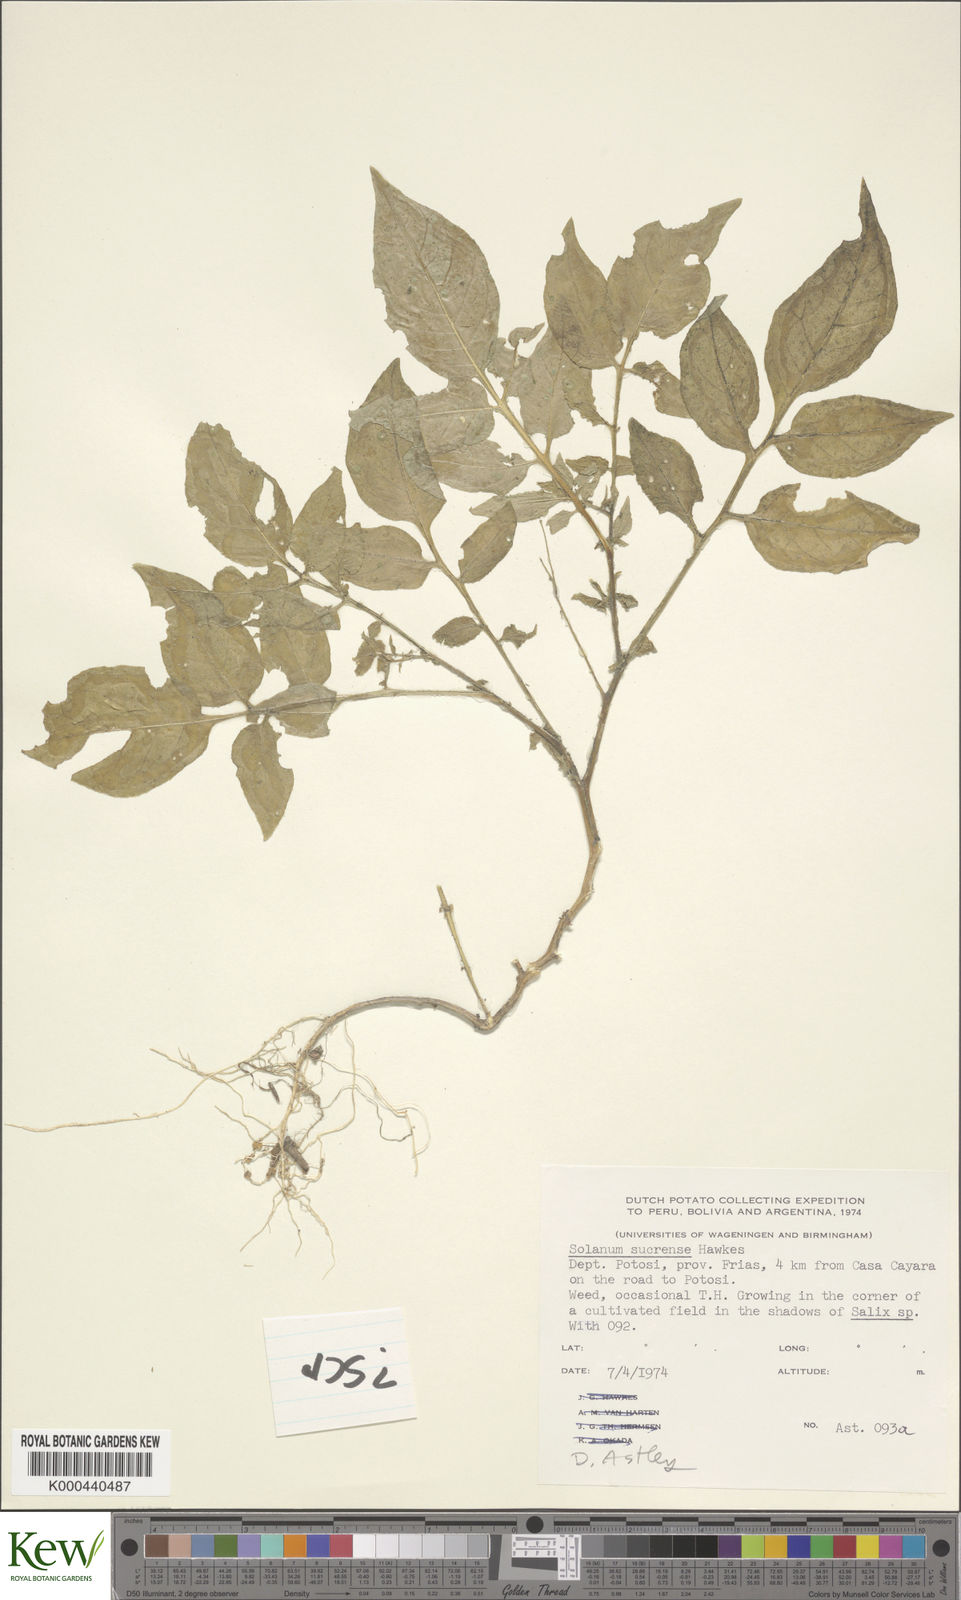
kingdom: Plantae
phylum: Tracheophyta
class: Magnoliopsida
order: Solanales
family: Solanaceae
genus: Solanum
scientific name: Solanum brevicaule
